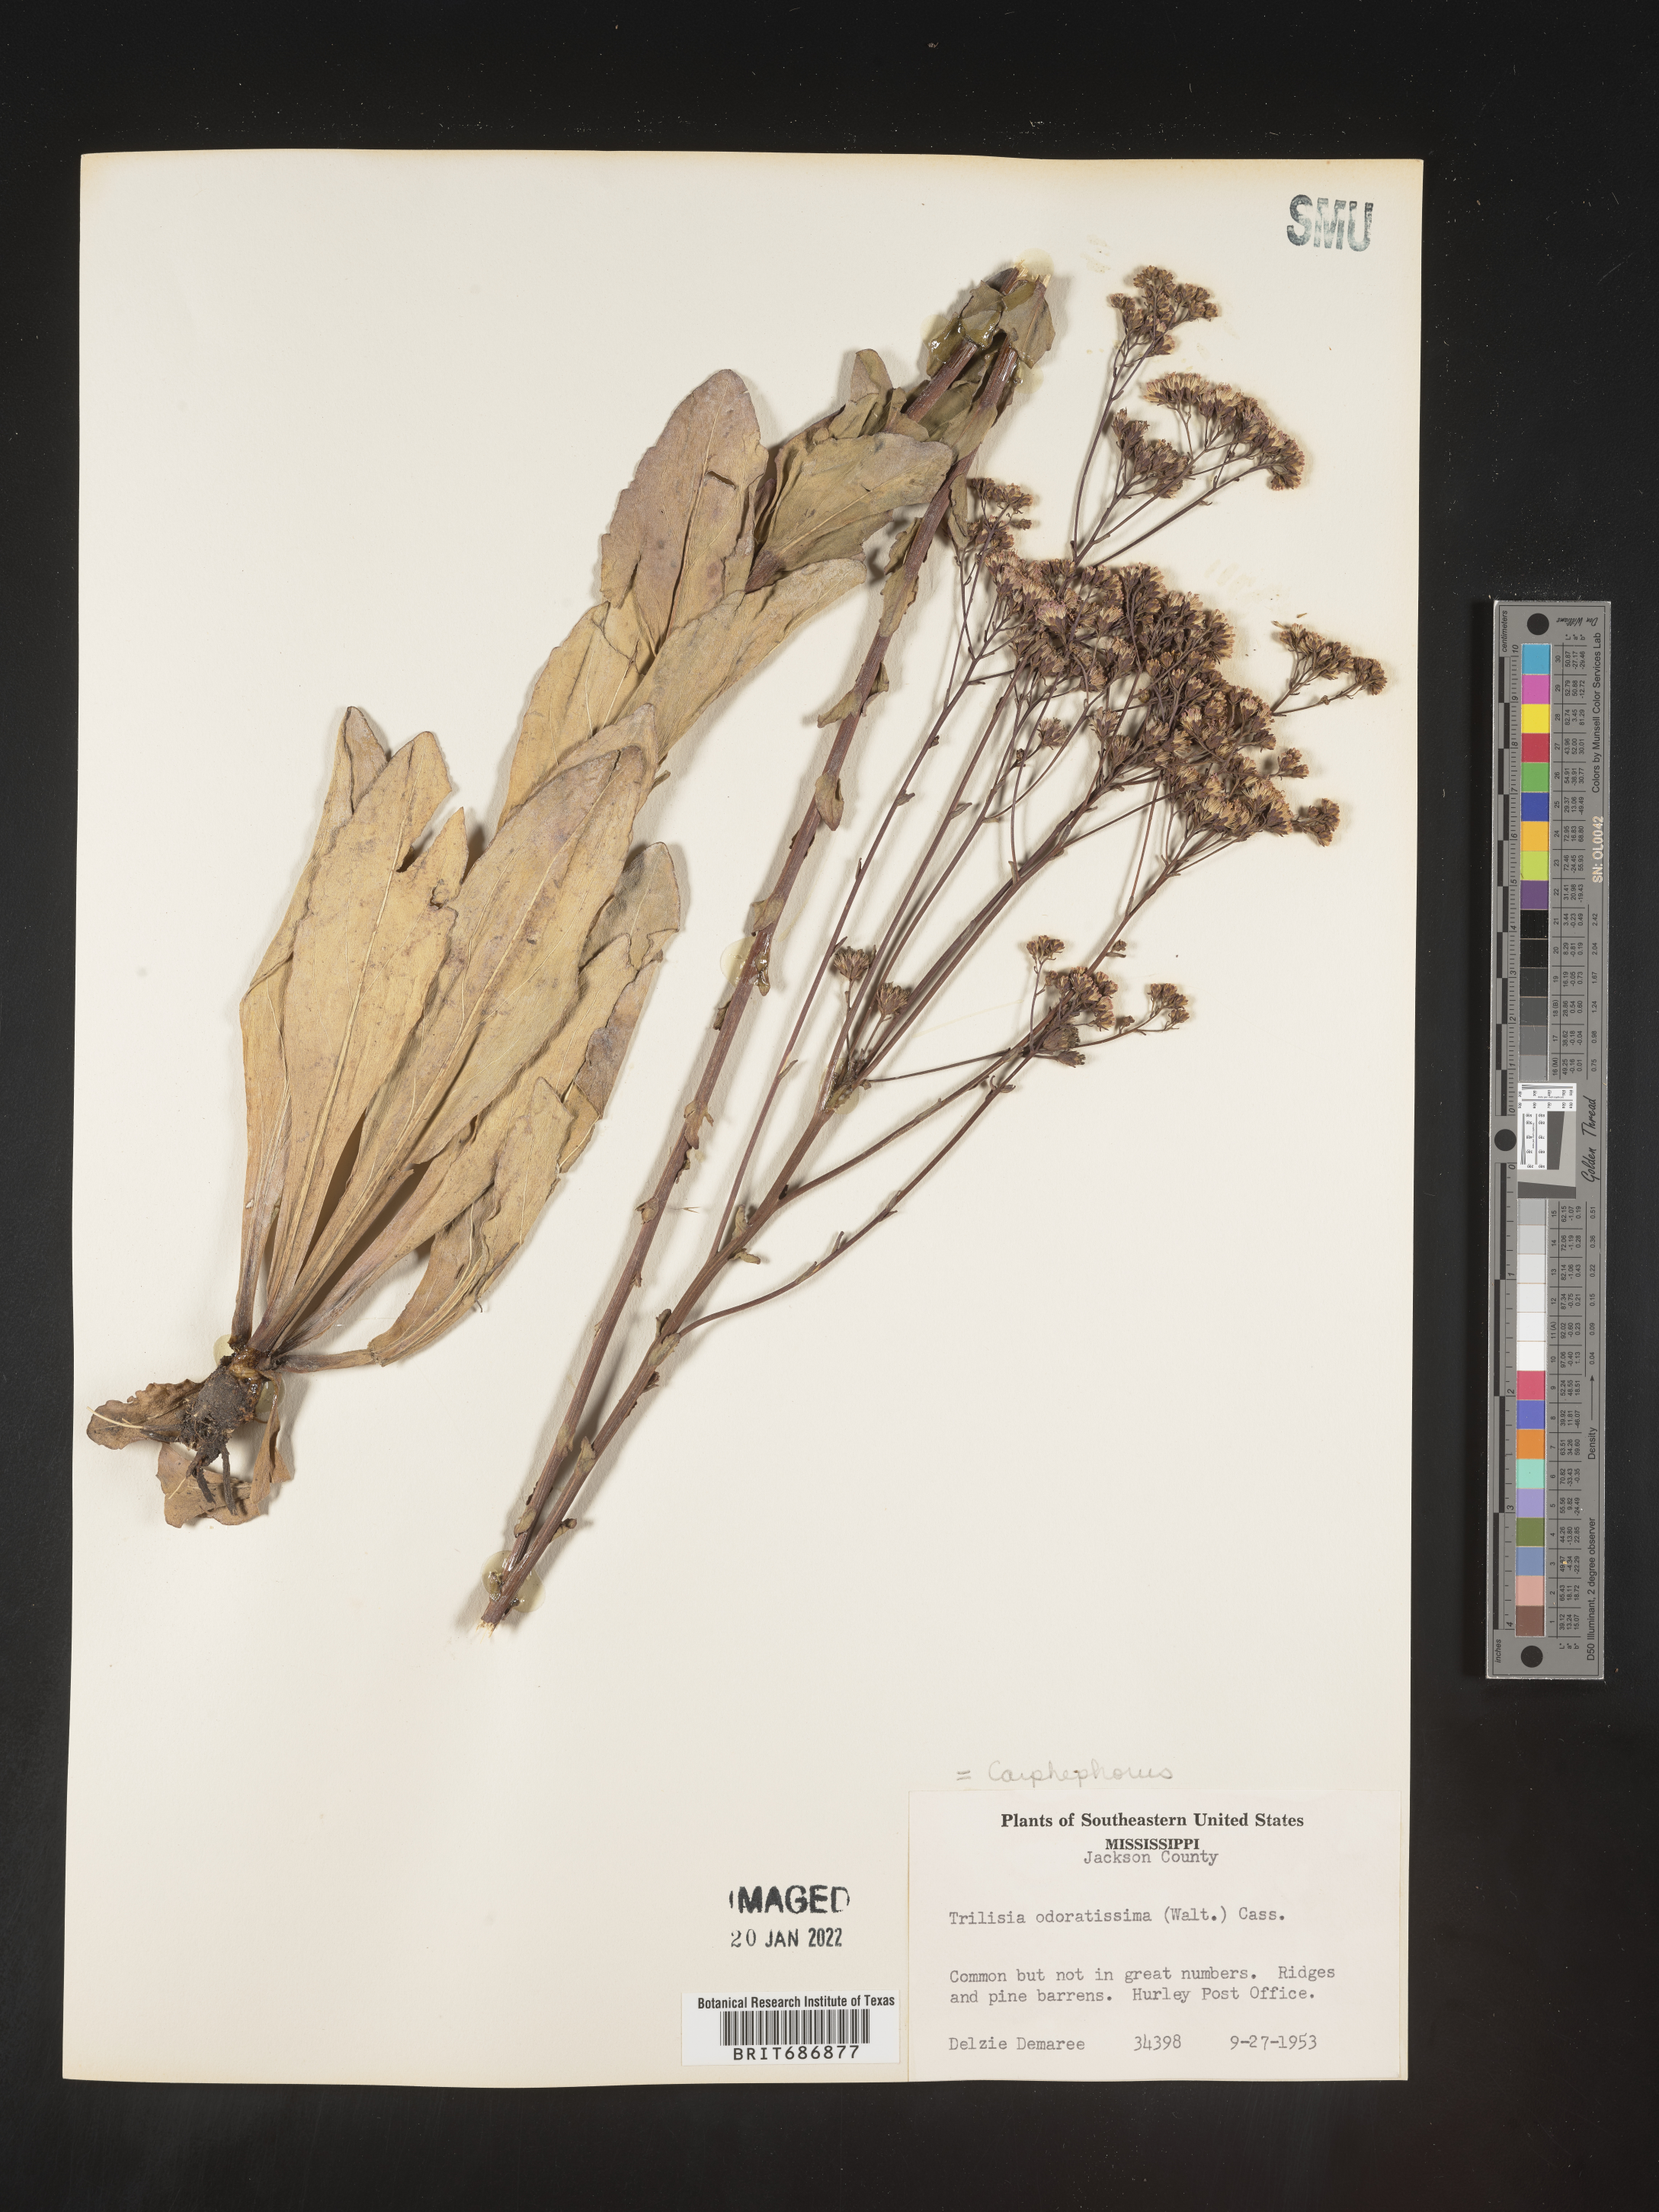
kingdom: Plantae
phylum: Tracheophyta
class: Magnoliopsida
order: Asterales
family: Asteraceae
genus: Carphephorus
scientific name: Carphephorus odoratissimus
